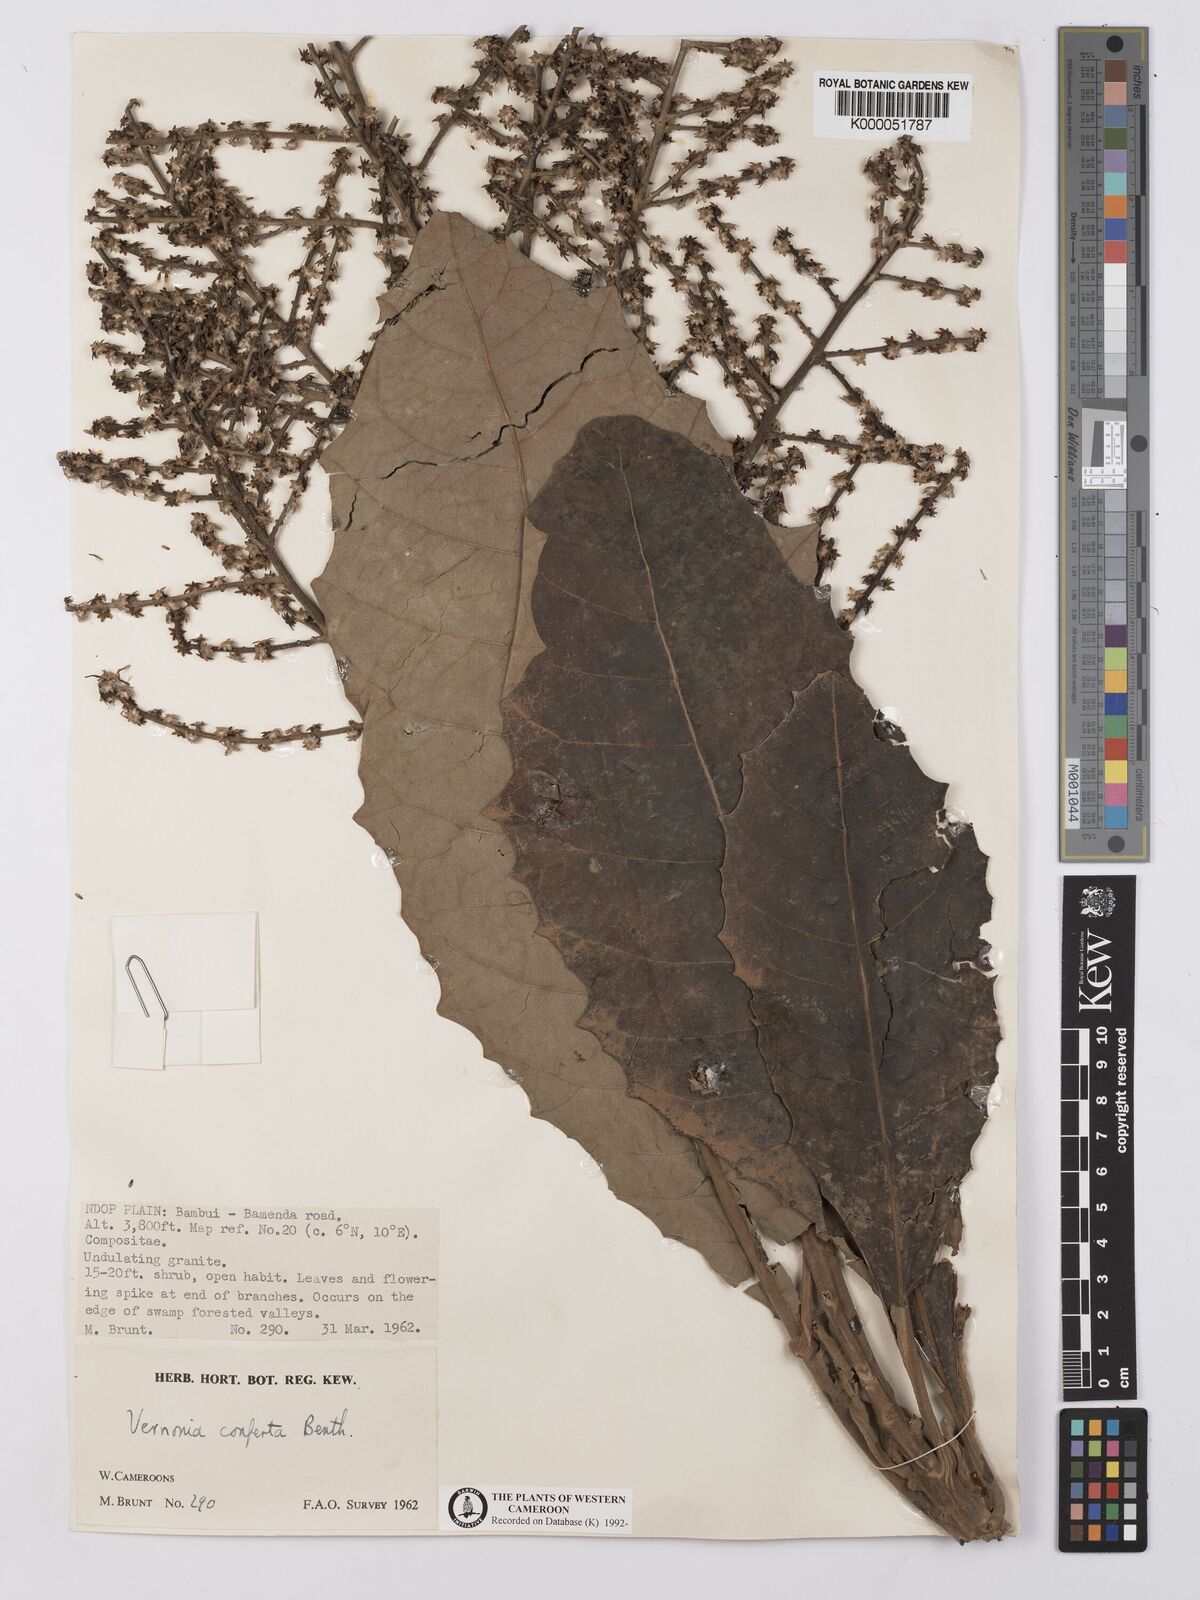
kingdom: Plantae
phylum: Tracheophyta
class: Magnoliopsida
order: Asterales
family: Asteraceae
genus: Brenandendron
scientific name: Brenandendron donianum
